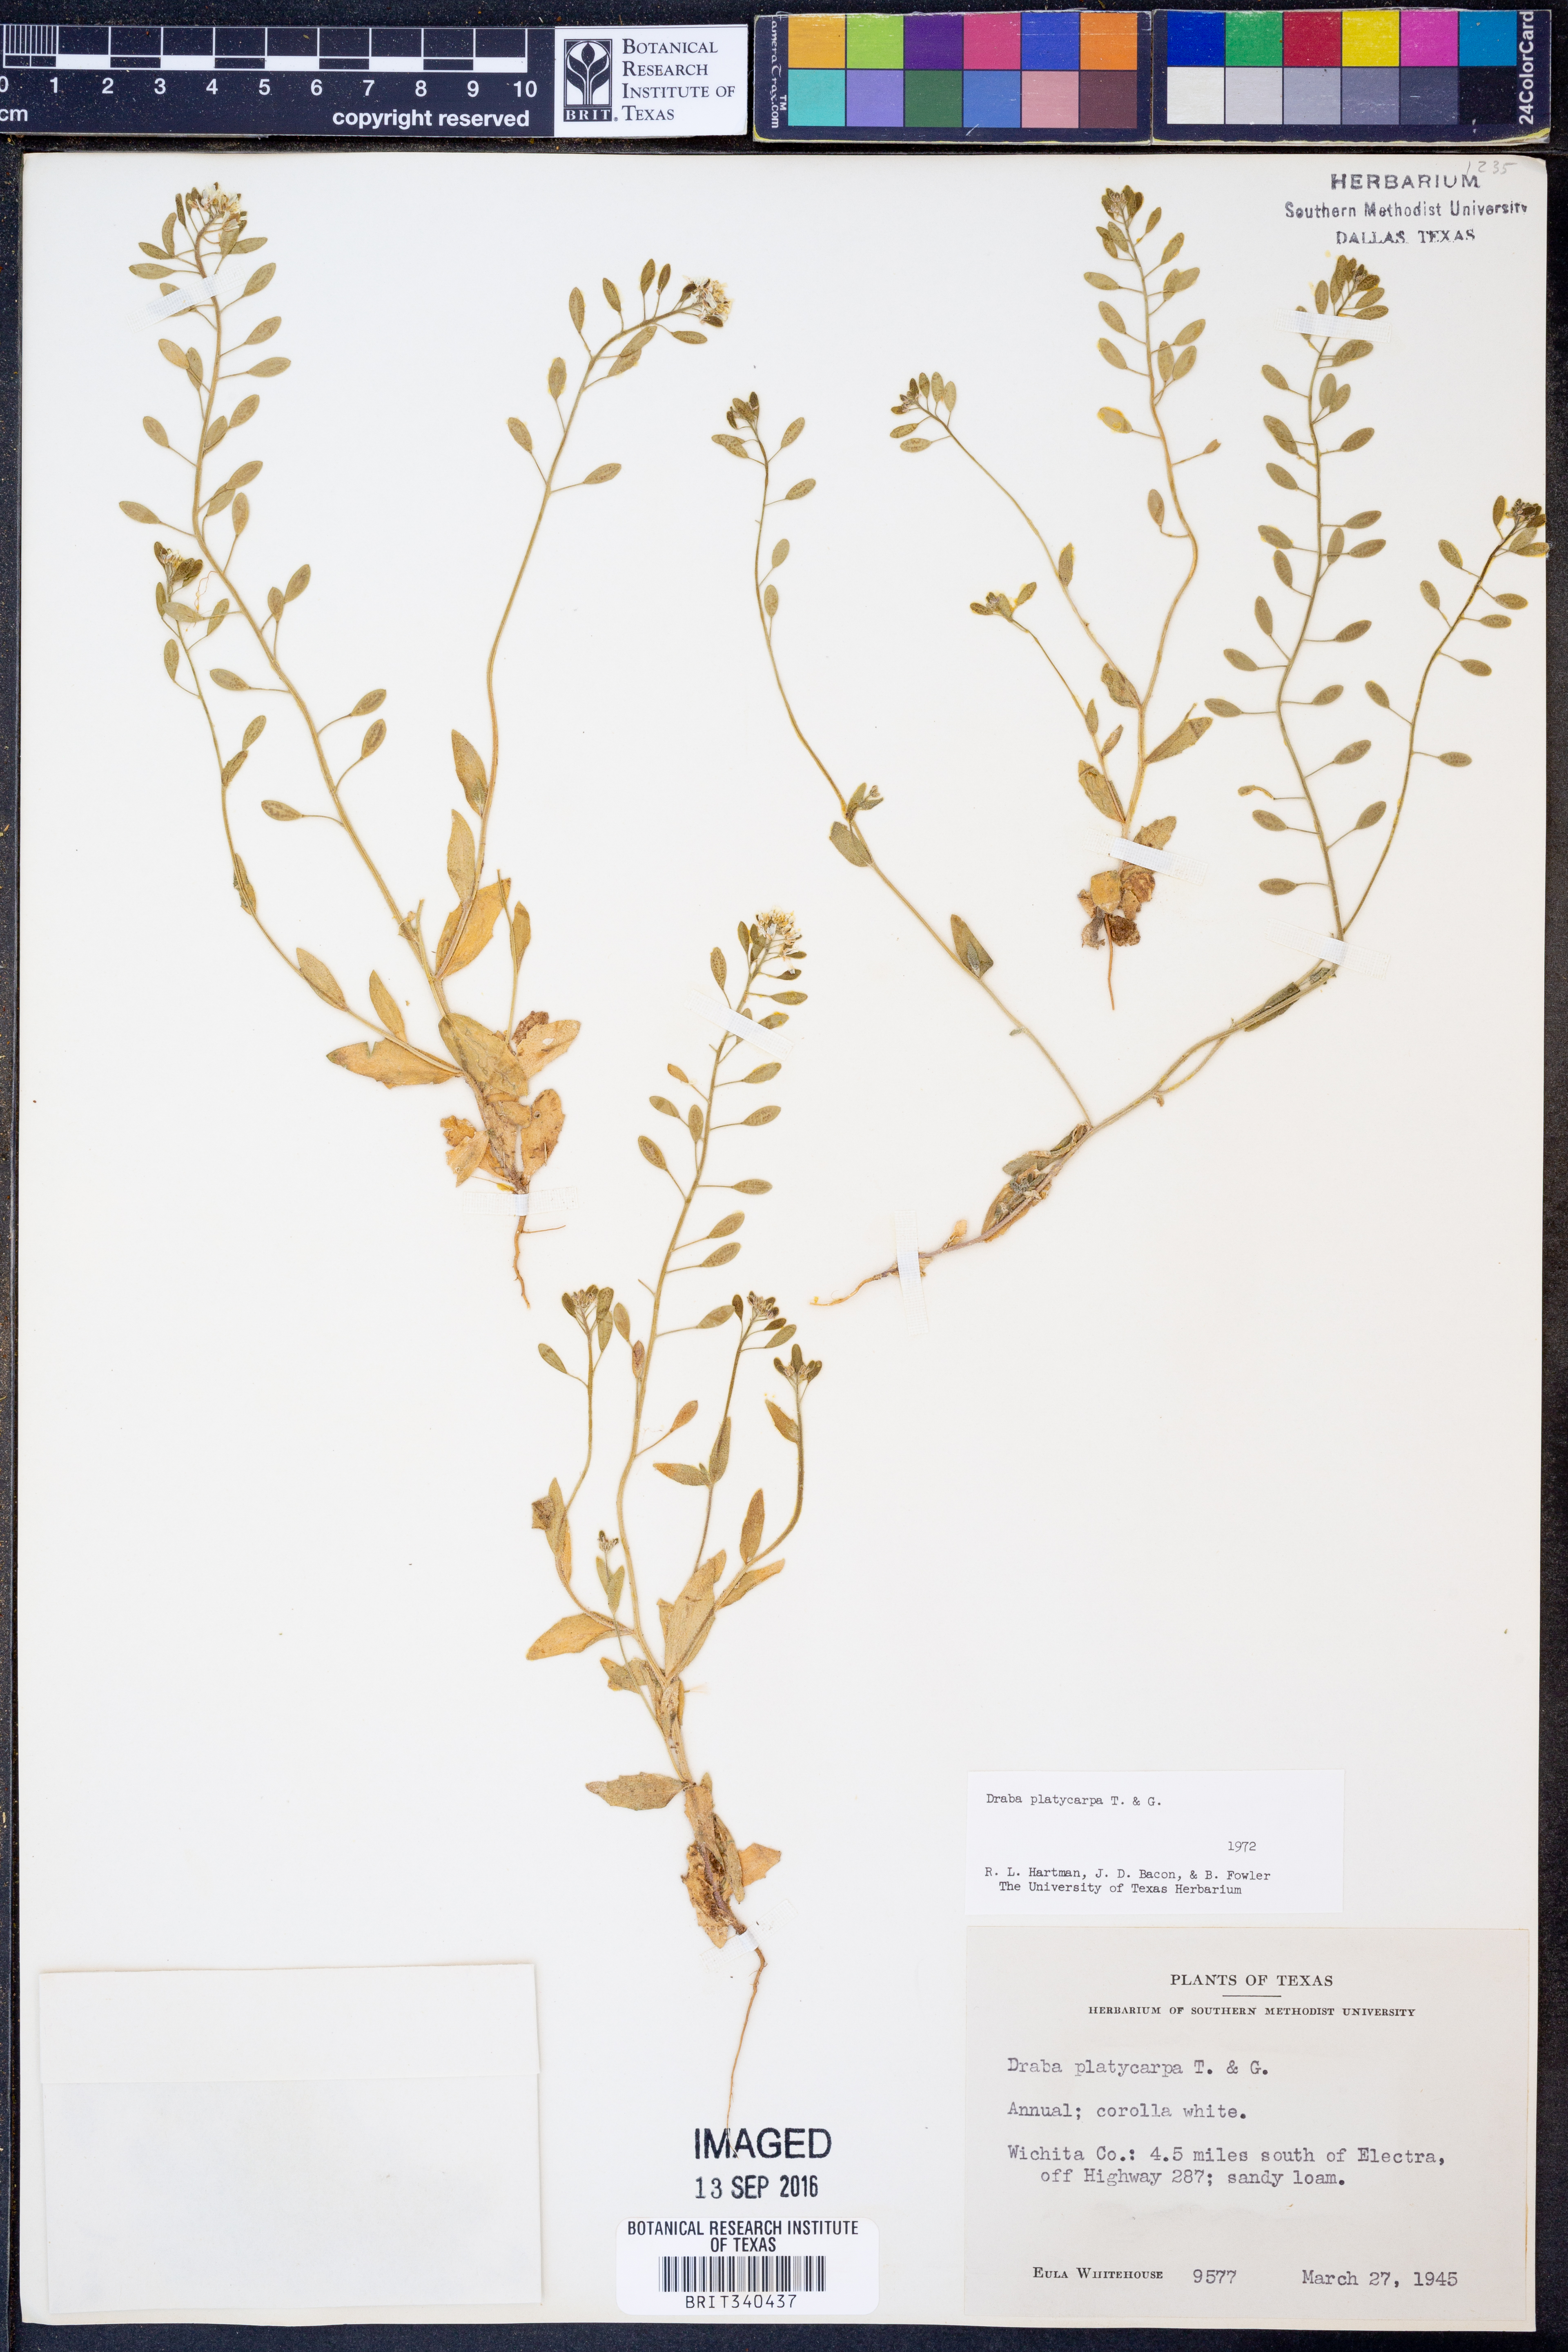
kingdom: Plantae
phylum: Tracheophyta
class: Magnoliopsida
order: Brassicales
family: Brassicaceae
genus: Tomostima
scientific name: Tomostima platycarpa
